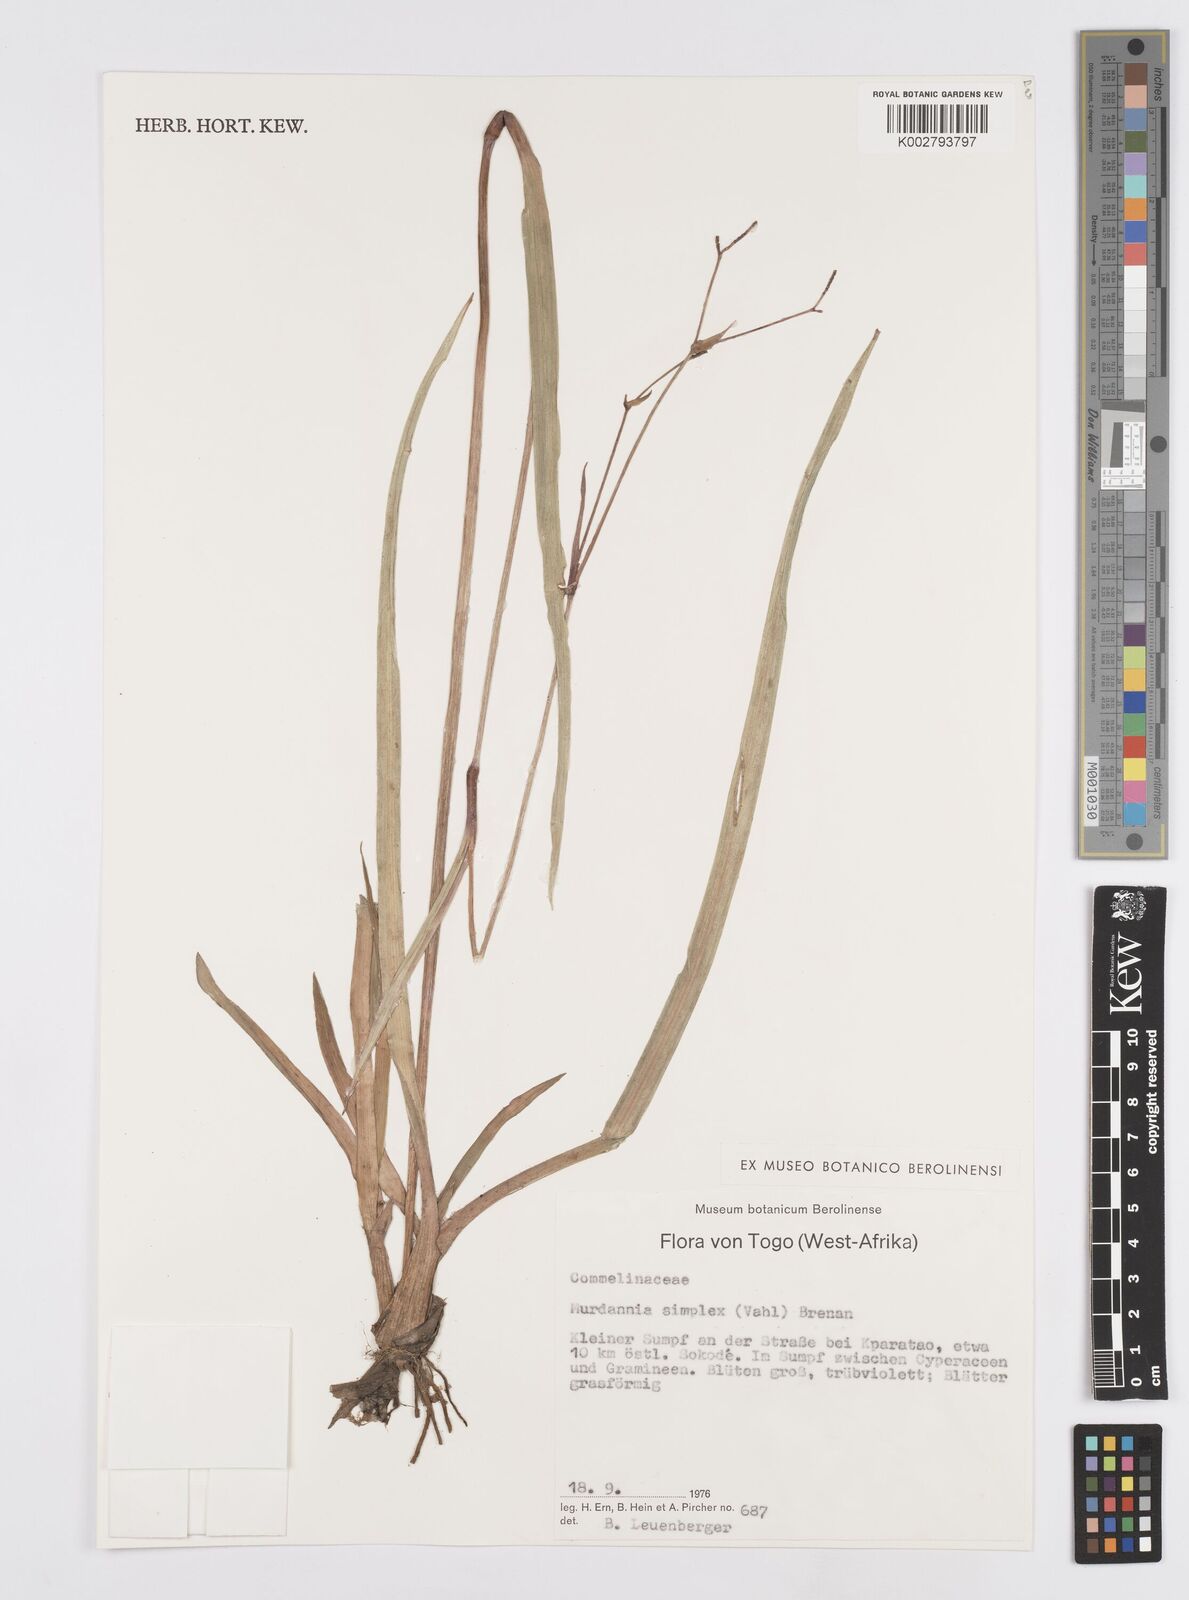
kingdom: Plantae
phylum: Tracheophyta
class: Liliopsida
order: Commelinales
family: Commelinaceae
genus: Murdannia
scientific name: Murdannia simplex
